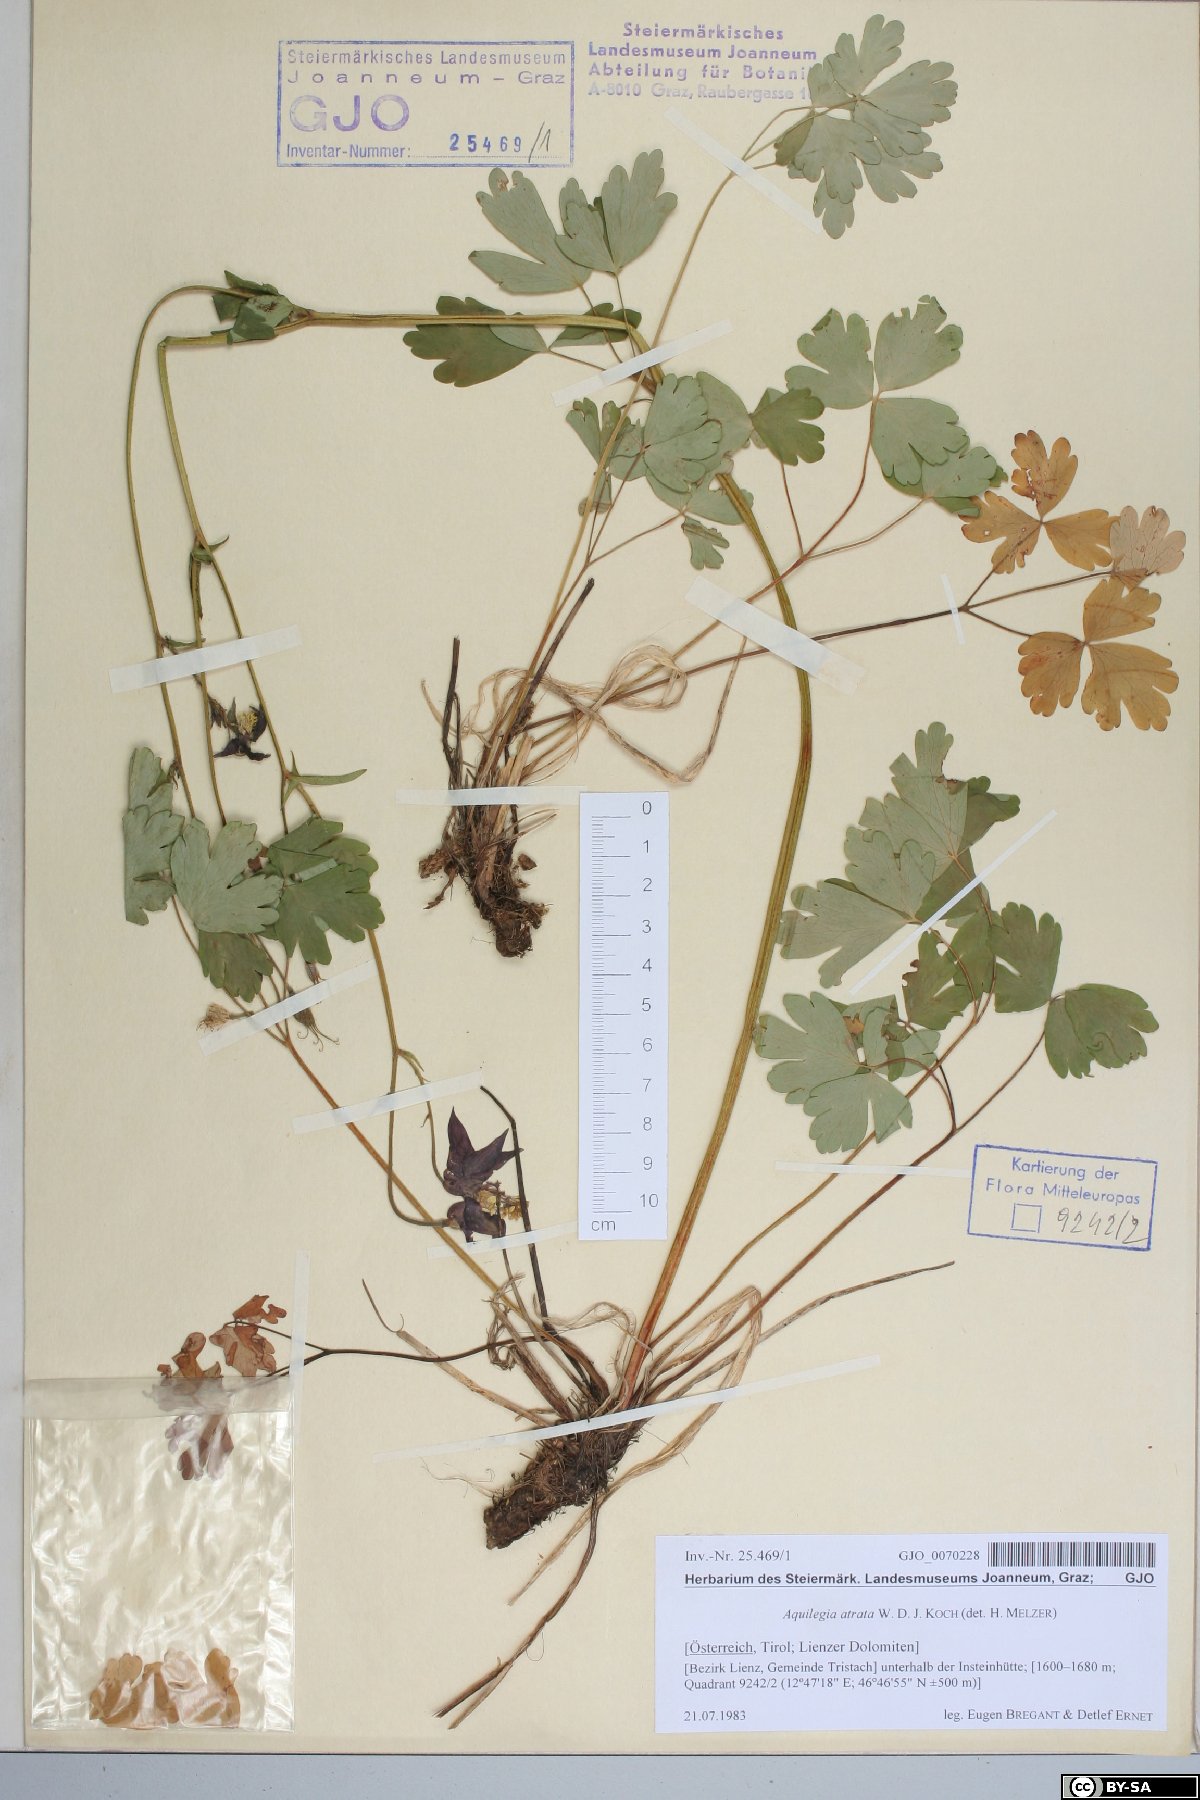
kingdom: Plantae
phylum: Tracheophyta
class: Magnoliopsida
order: Ranunculales
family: Ranunculaceae
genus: Aquilegia
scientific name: Aquilegia atrata
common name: Dark columbine
